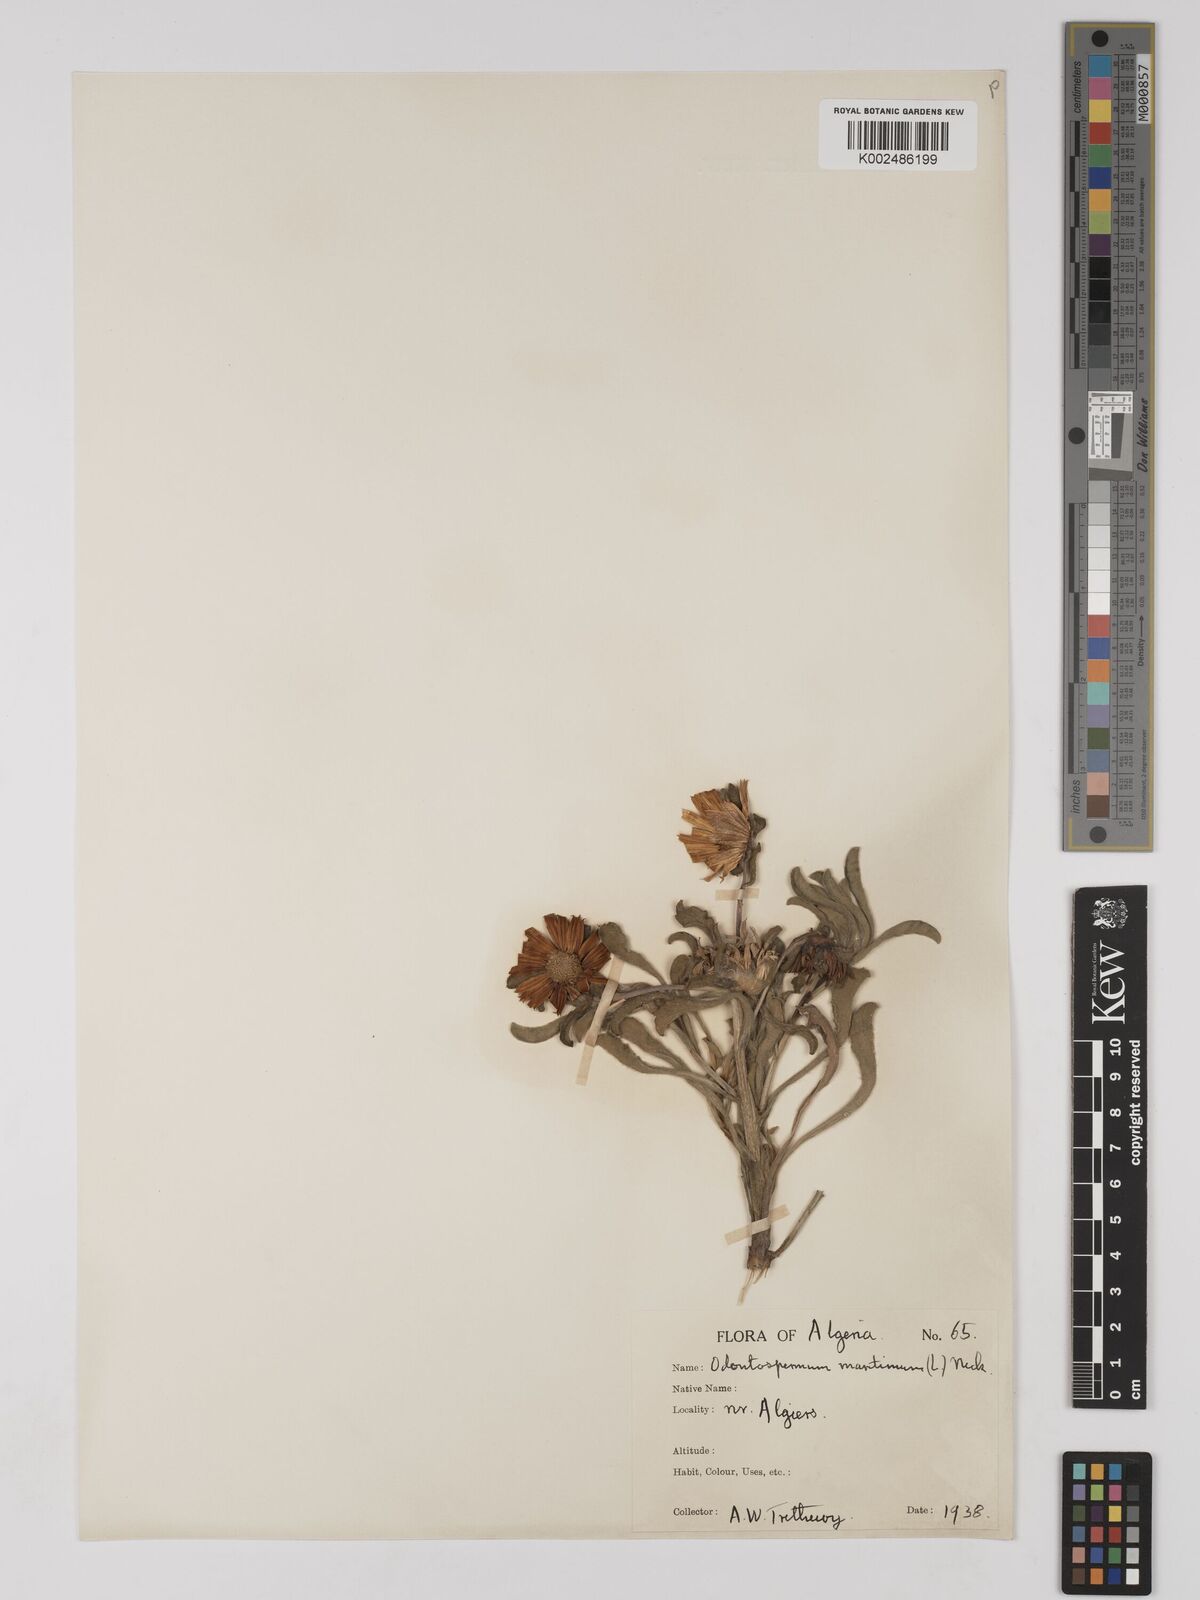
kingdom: Plantae
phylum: Tracheophyta
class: Magnoliopsida
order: Asterales
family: Asteraceae
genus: Pallenis
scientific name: Pallenis maritima
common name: Golden coin daisy
